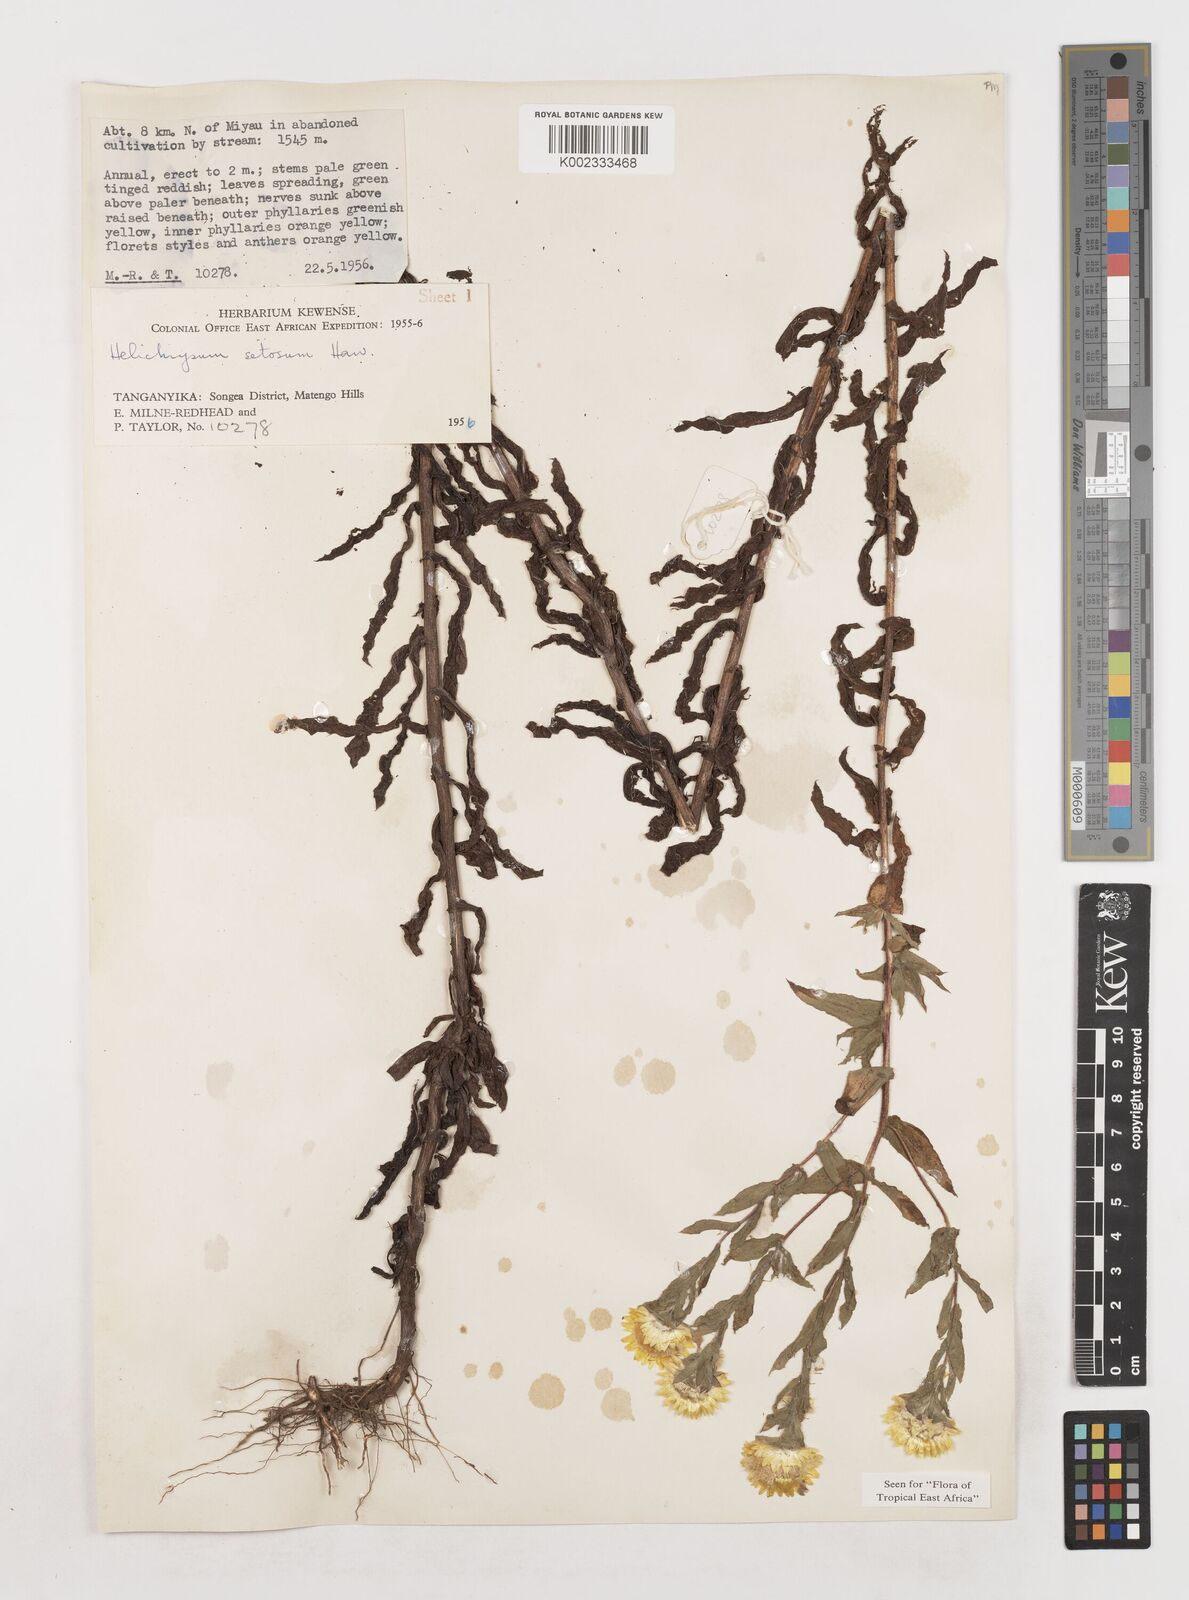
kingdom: Plantae
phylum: Tracheophyta
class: Magnoliopsida
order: Asterales
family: Asteraceae
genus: Helichrysum
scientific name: Helichrysum setosum
